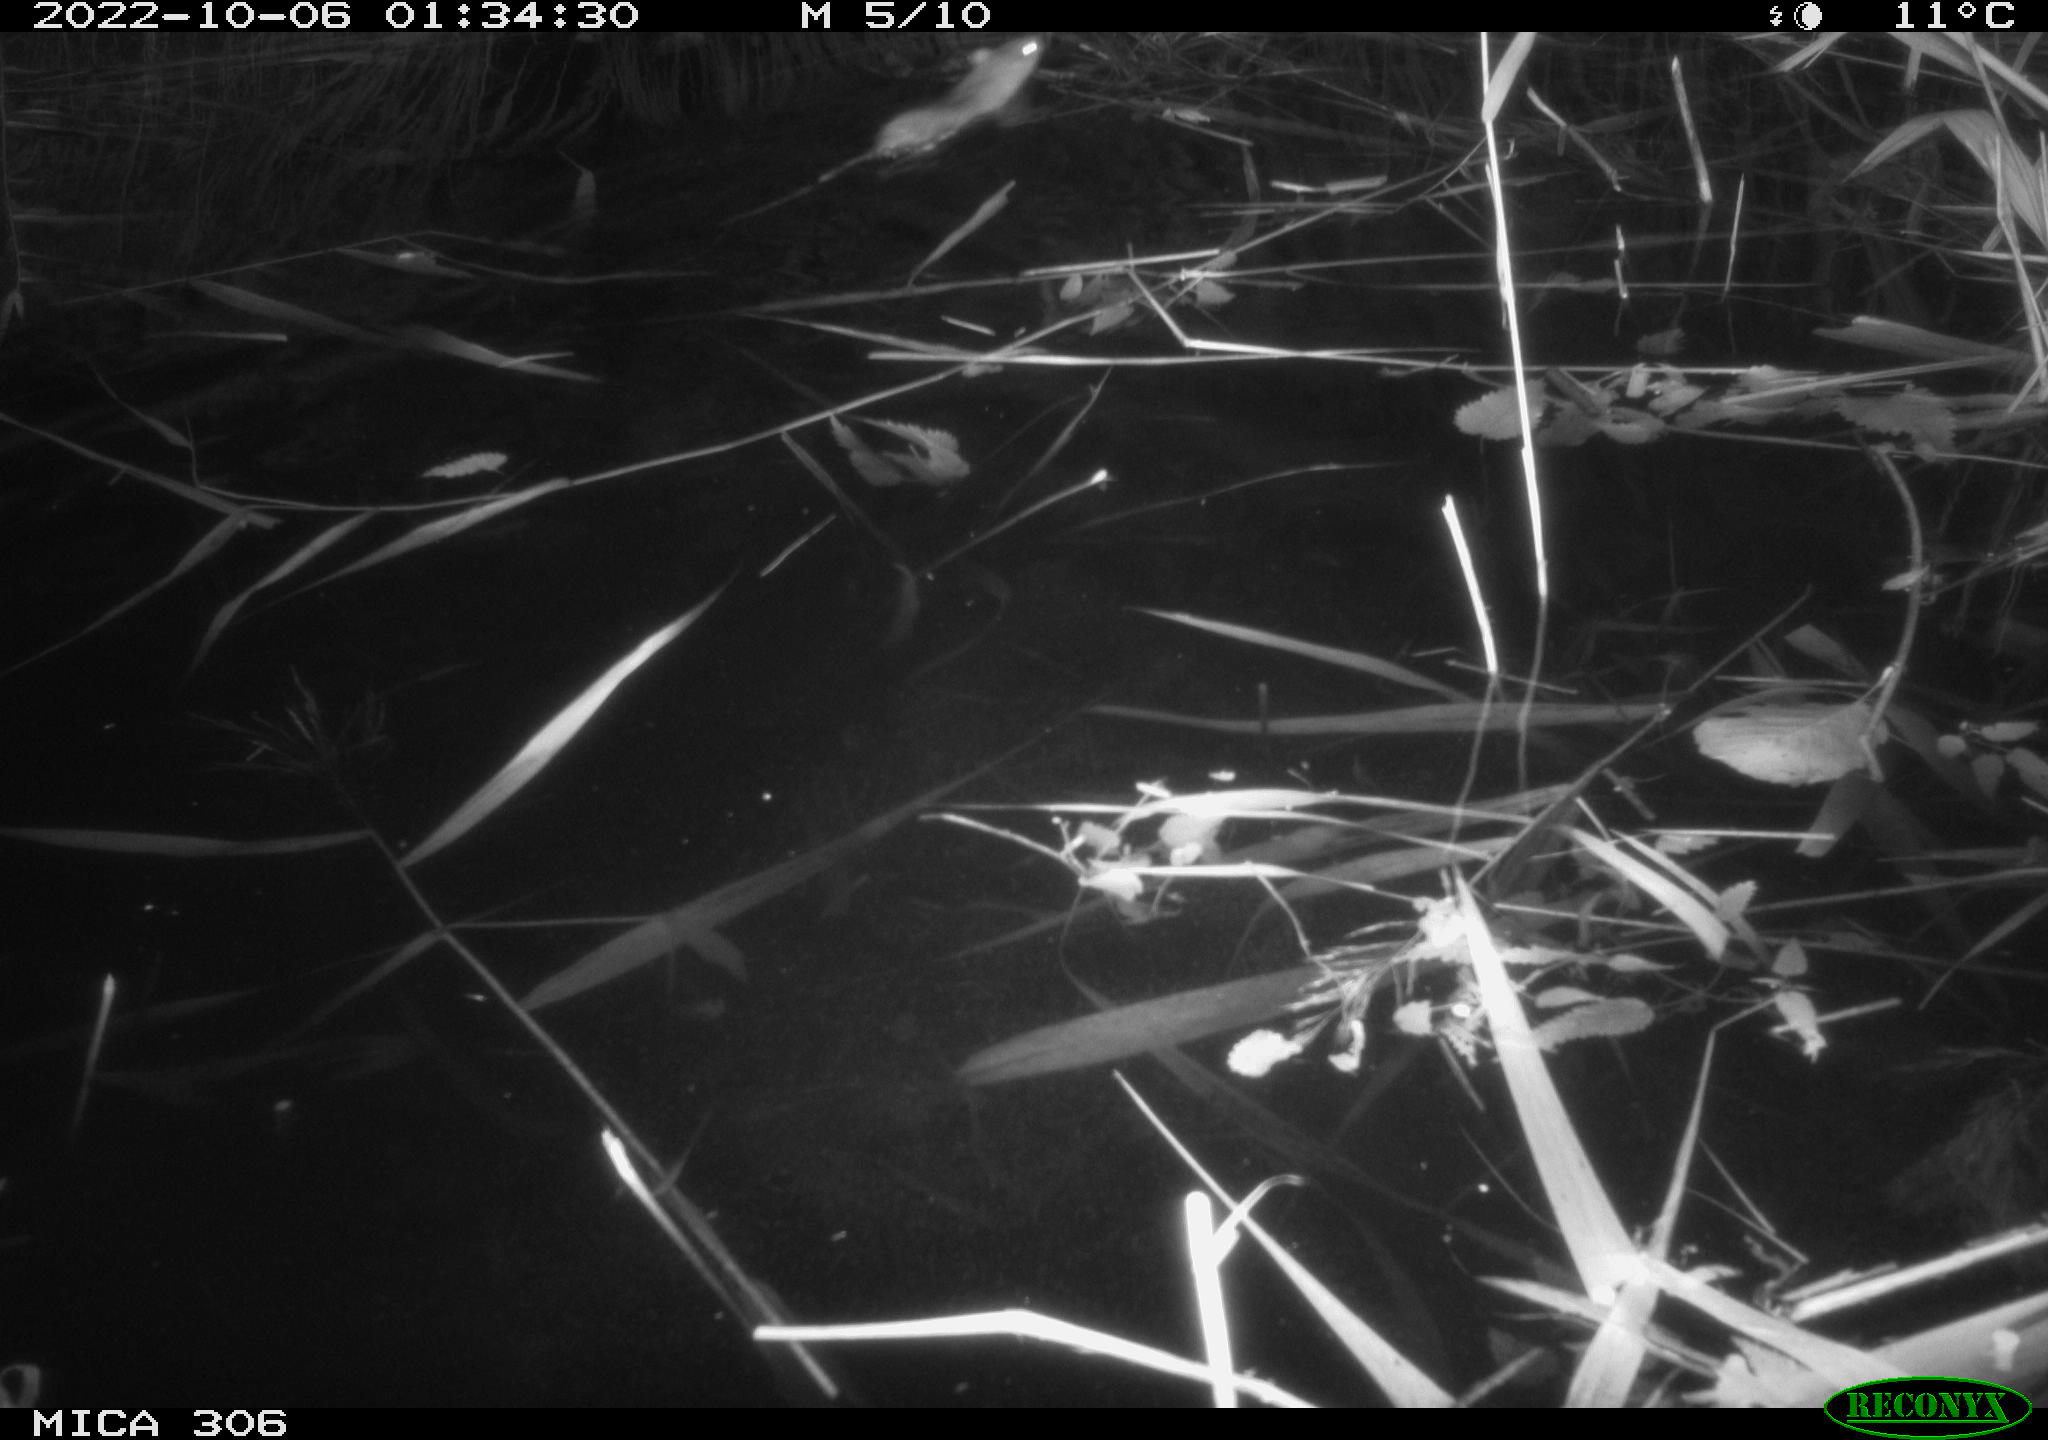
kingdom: Animalia
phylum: Chordata
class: Mammalia
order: Rodentia
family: Muridae
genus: Rattus
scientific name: Rattus norvegicus
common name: Brown rat
